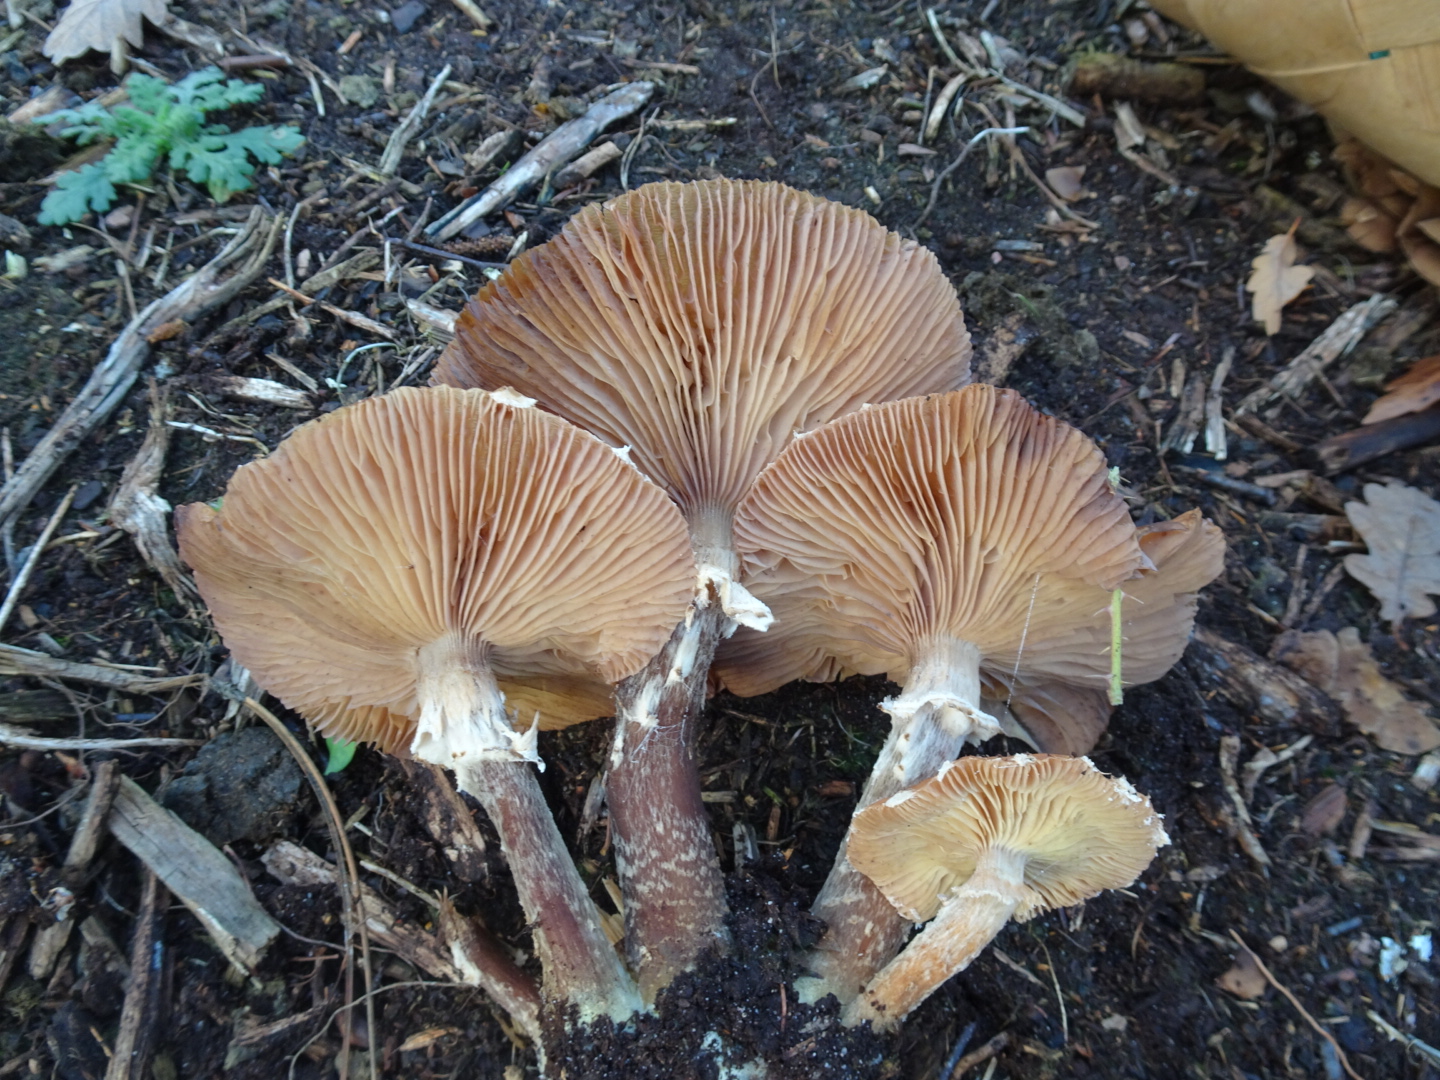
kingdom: Fungi
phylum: Basidiomycota
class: Agaricomycetes
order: Agaricales
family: Physalacriaceae
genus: Armillaria
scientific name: Armillaria ostoyae
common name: mørk honningsvamp
